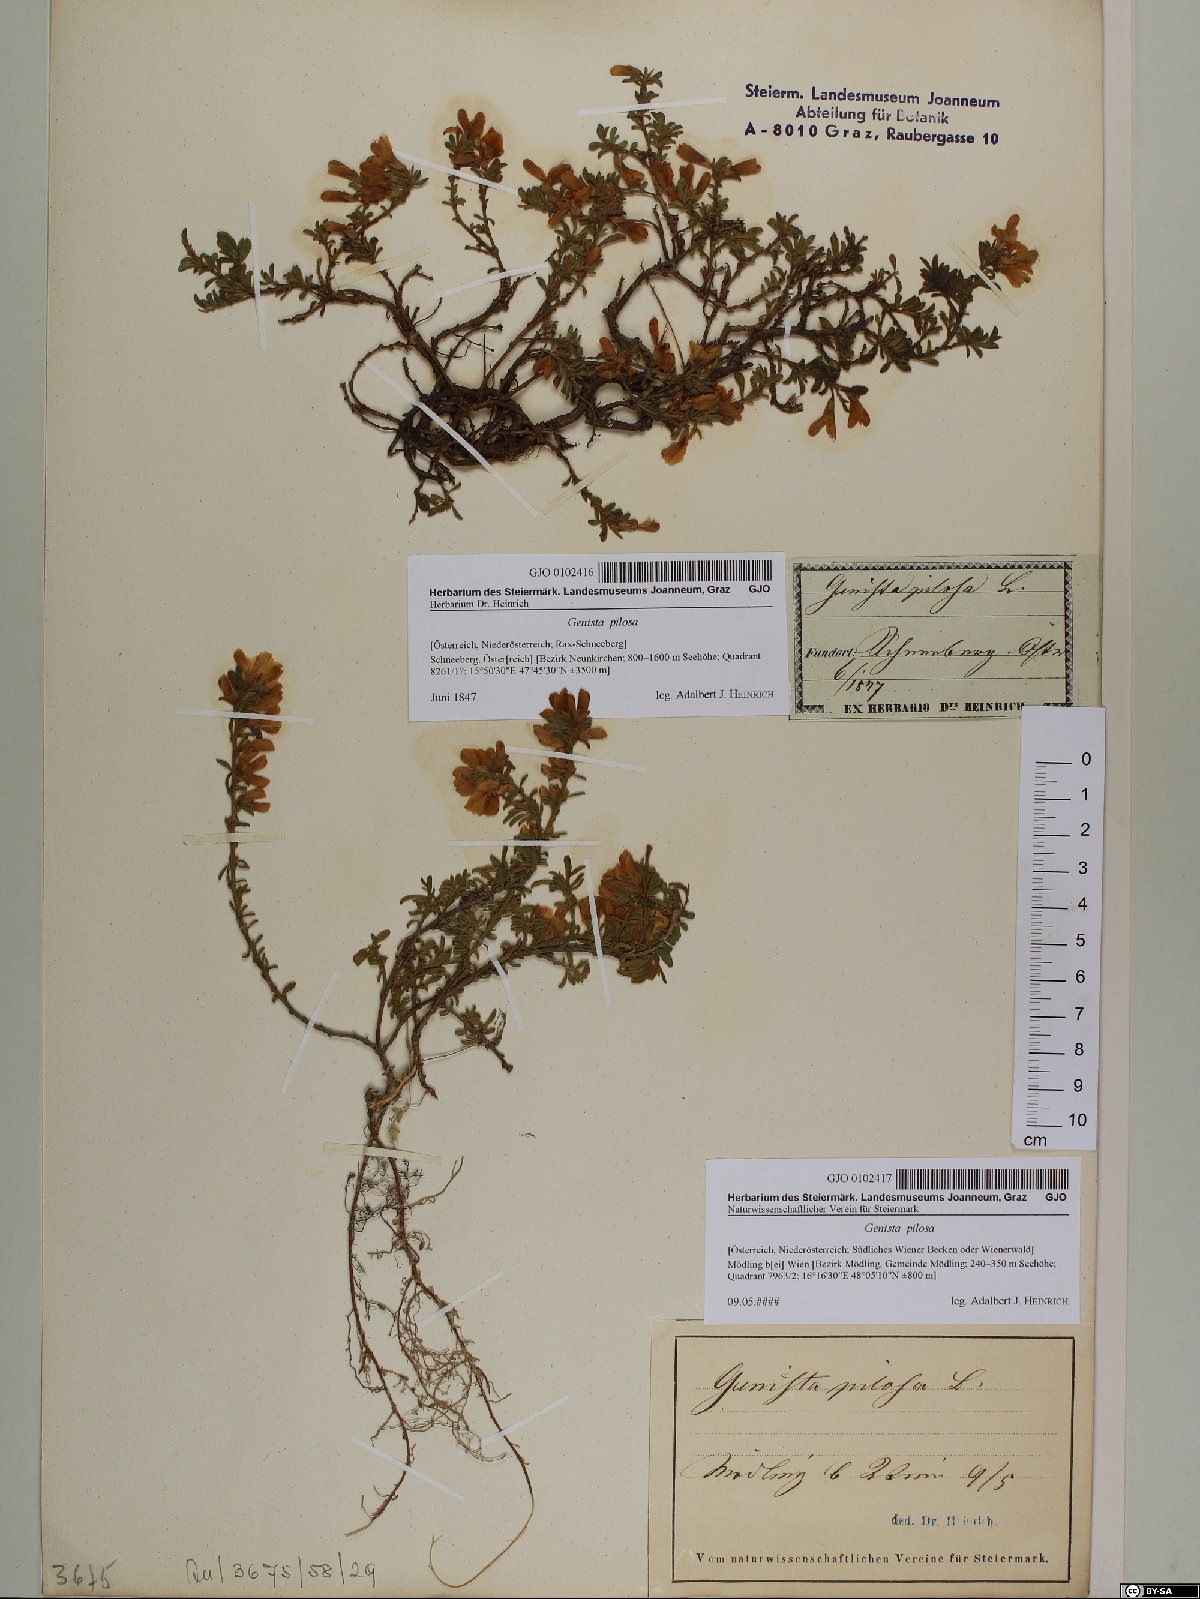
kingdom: Plantae
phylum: Tracheophyta
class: Magnoliopsida
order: Fabales
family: Fabaceae
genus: Genista
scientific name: Genista pilosa
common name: Hairy greenweed
